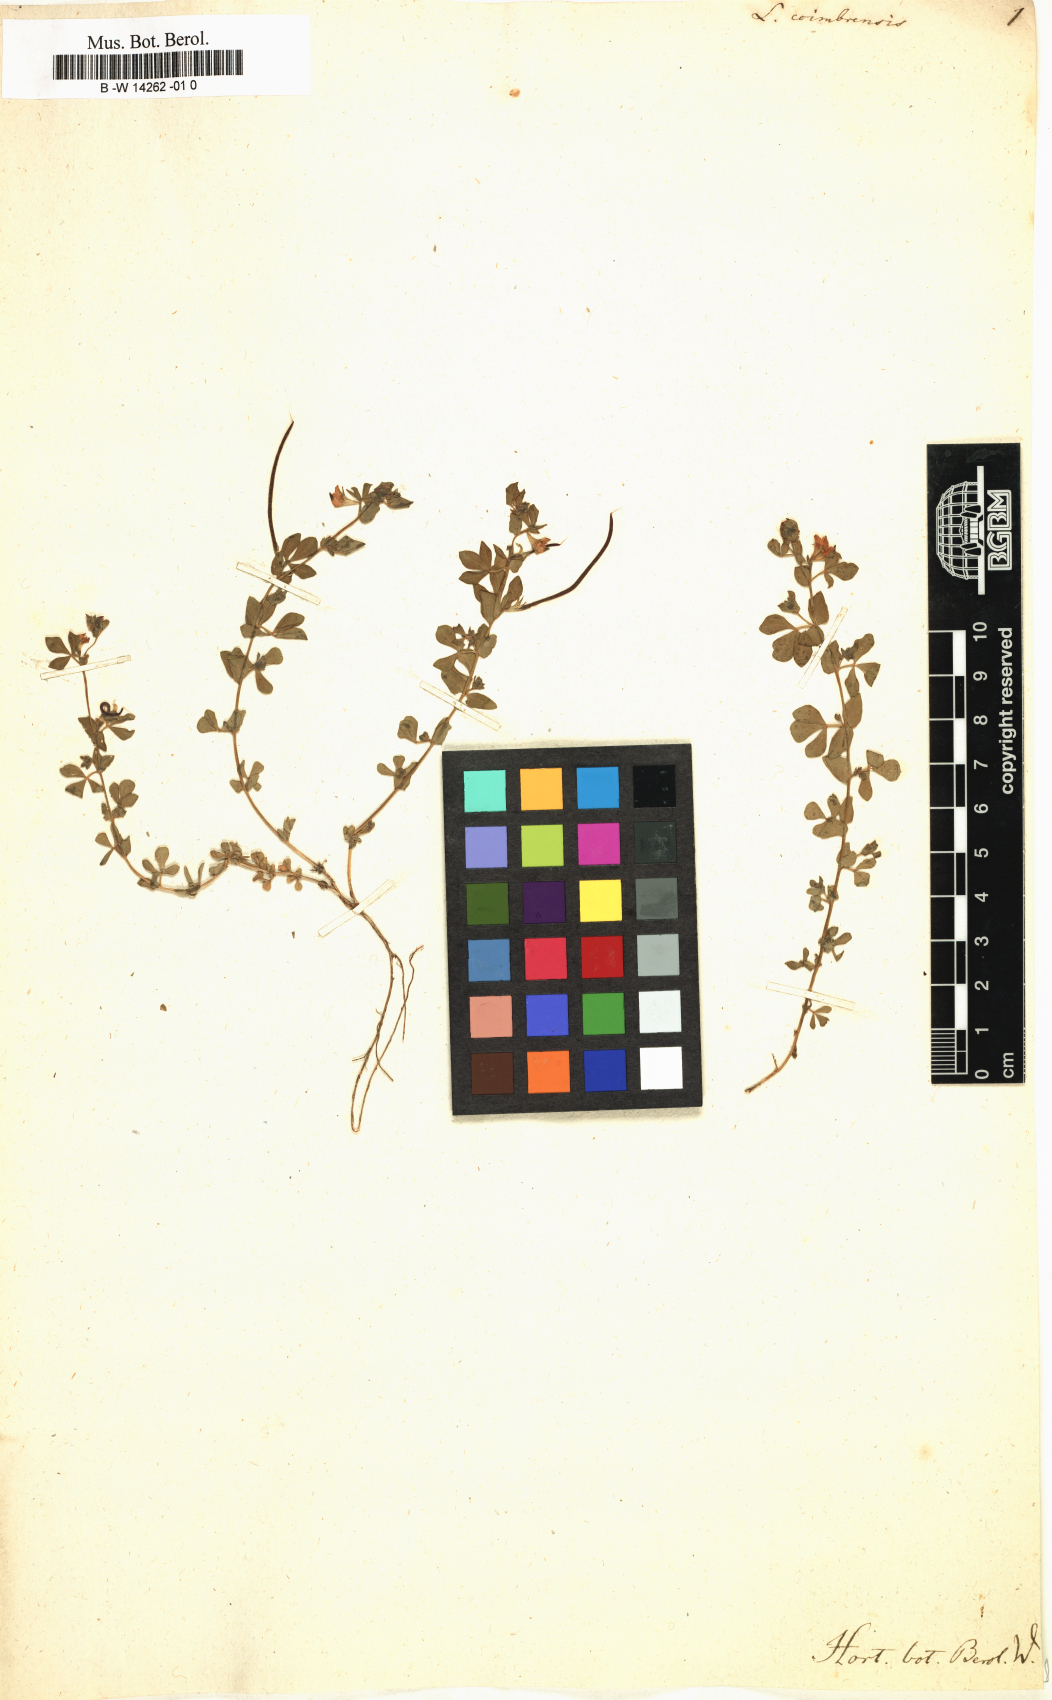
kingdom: Plantae
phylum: Tracheophyta
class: Magnoliopsida
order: Fabales
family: Fabaceae
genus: Lotus
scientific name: Lotus conimbricensis
